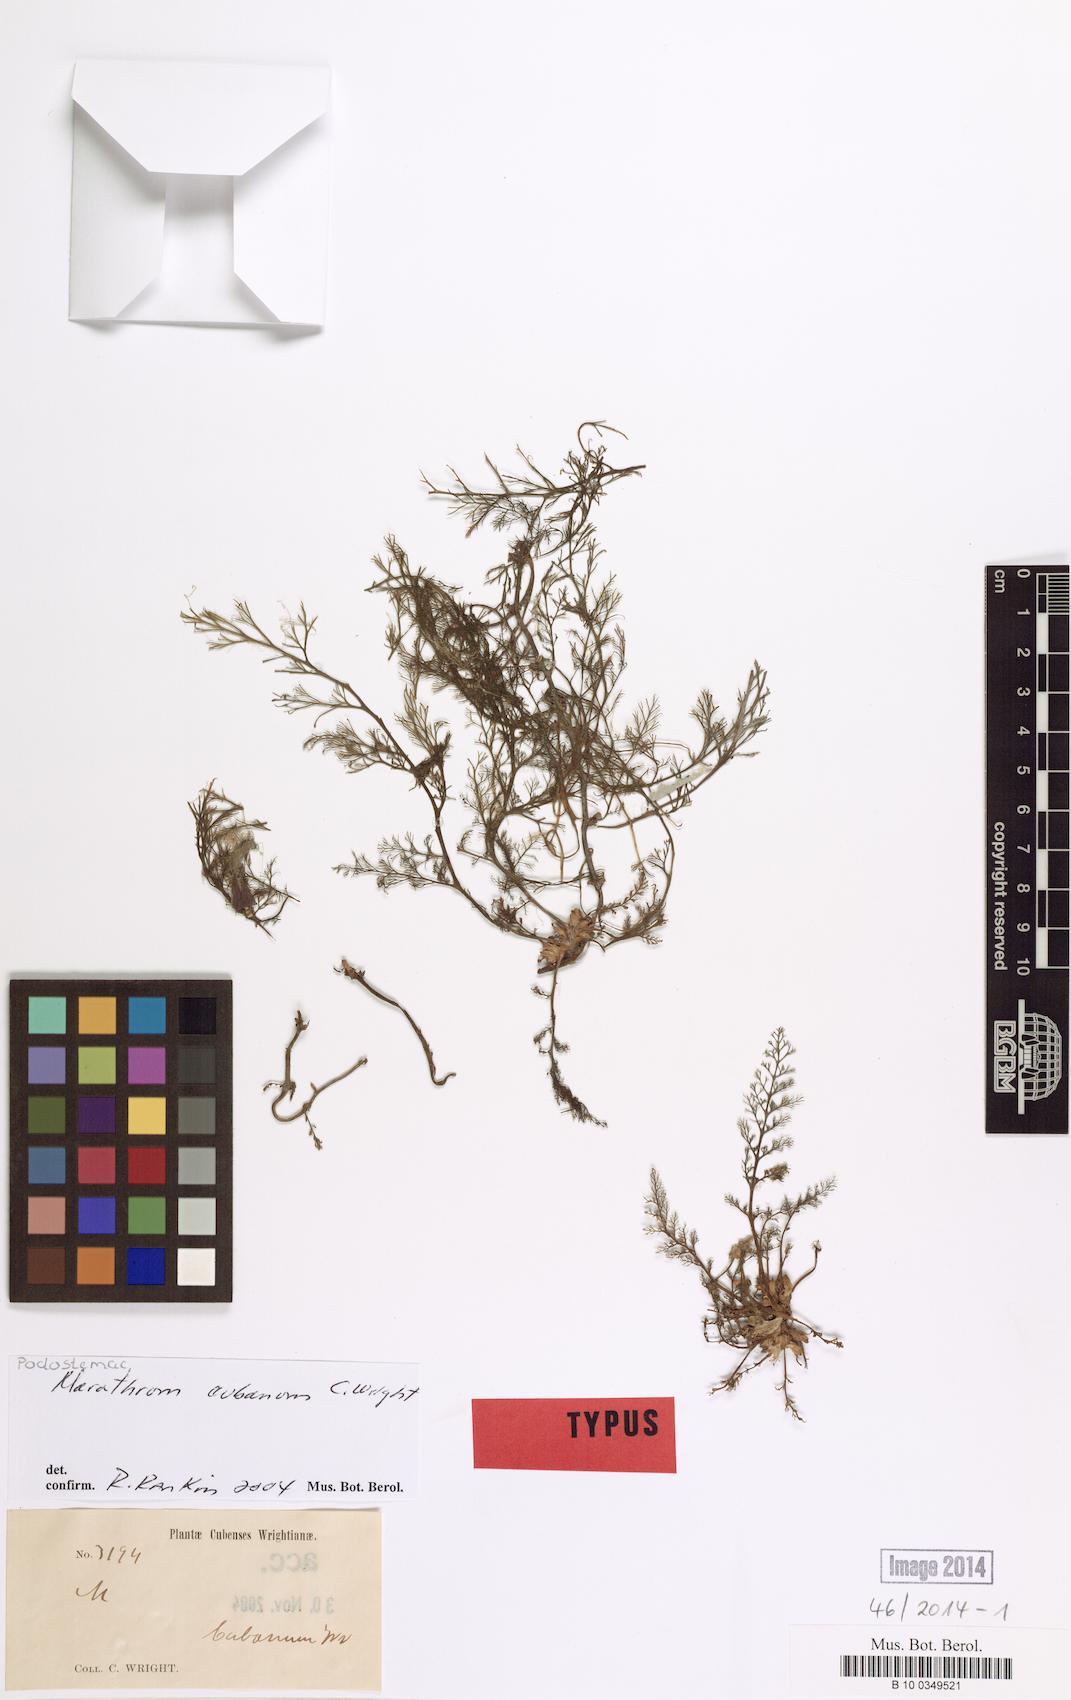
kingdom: Plantae
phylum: Tracheophyta
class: Magnoliopsida
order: Malpighiales
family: Podostemaceae
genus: Marathrum
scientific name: Marathrum cubanum
